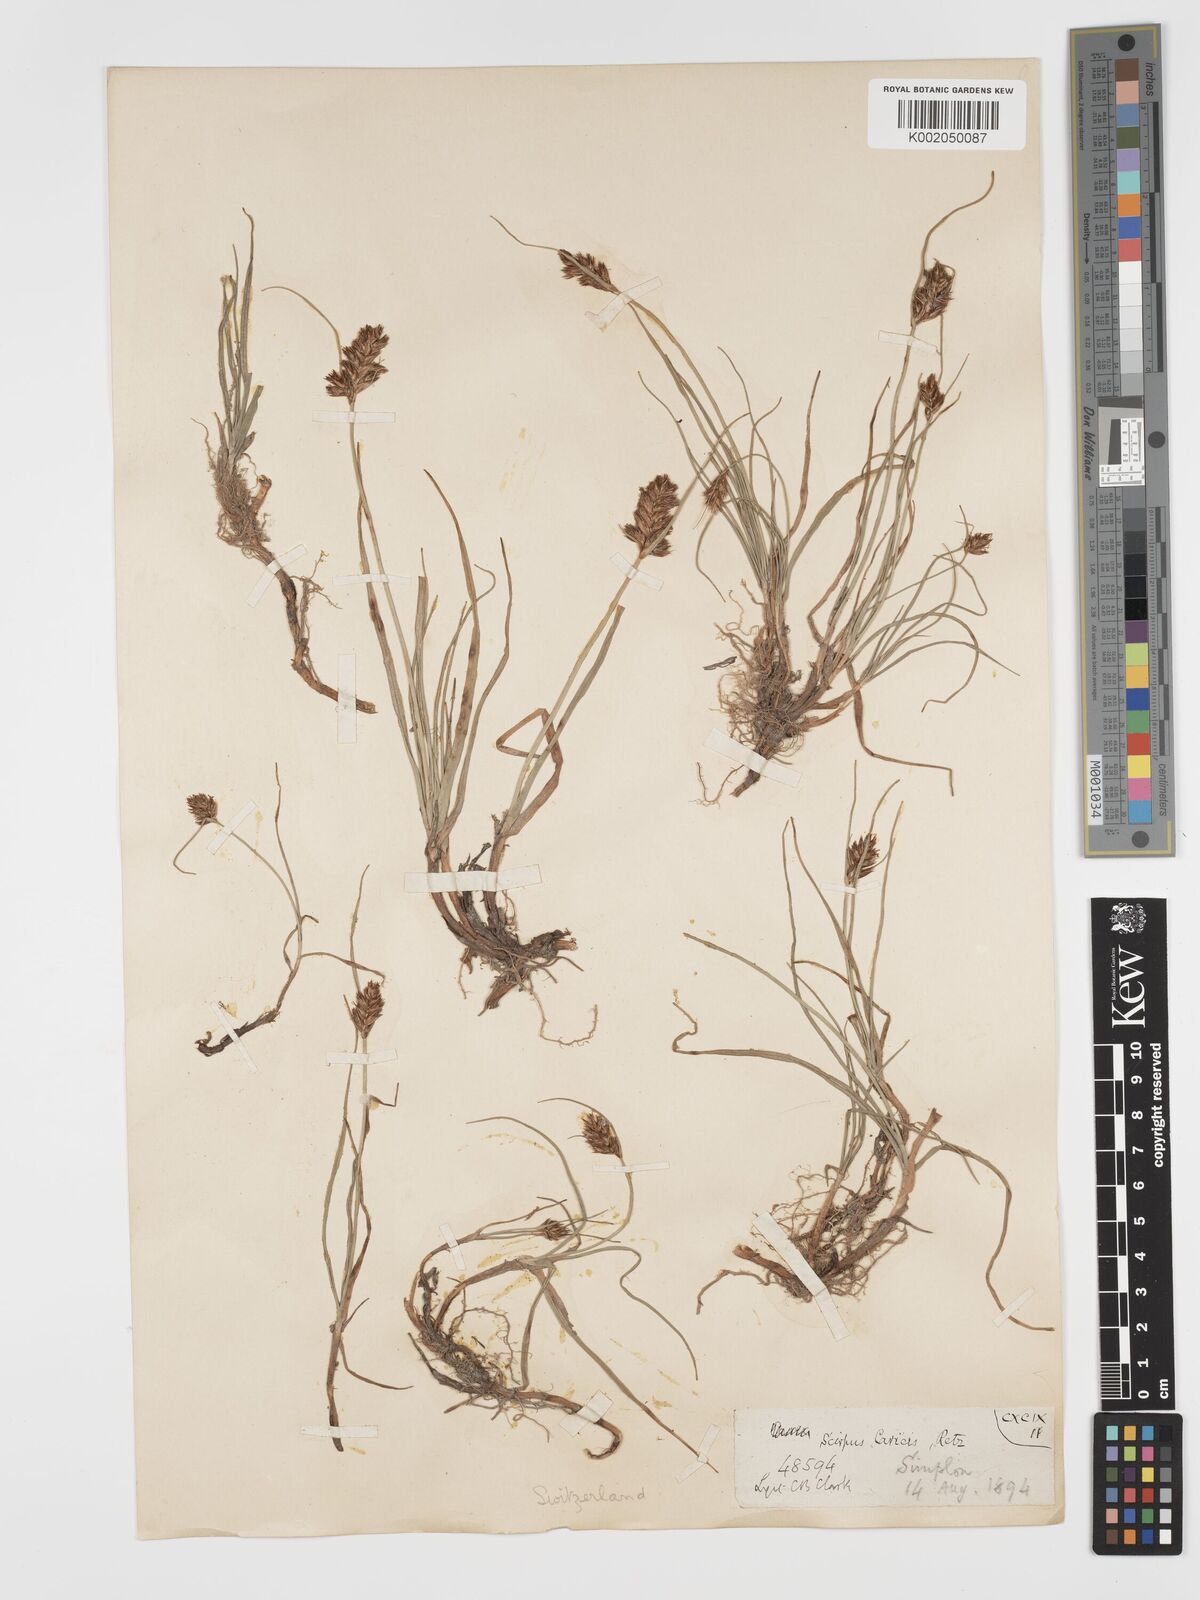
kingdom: Plantae
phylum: Tracheophyta
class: Liliopsida
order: Poales
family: Cyperaceae
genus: Blysmus
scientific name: Blysmus compressus
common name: Flat-sedge
